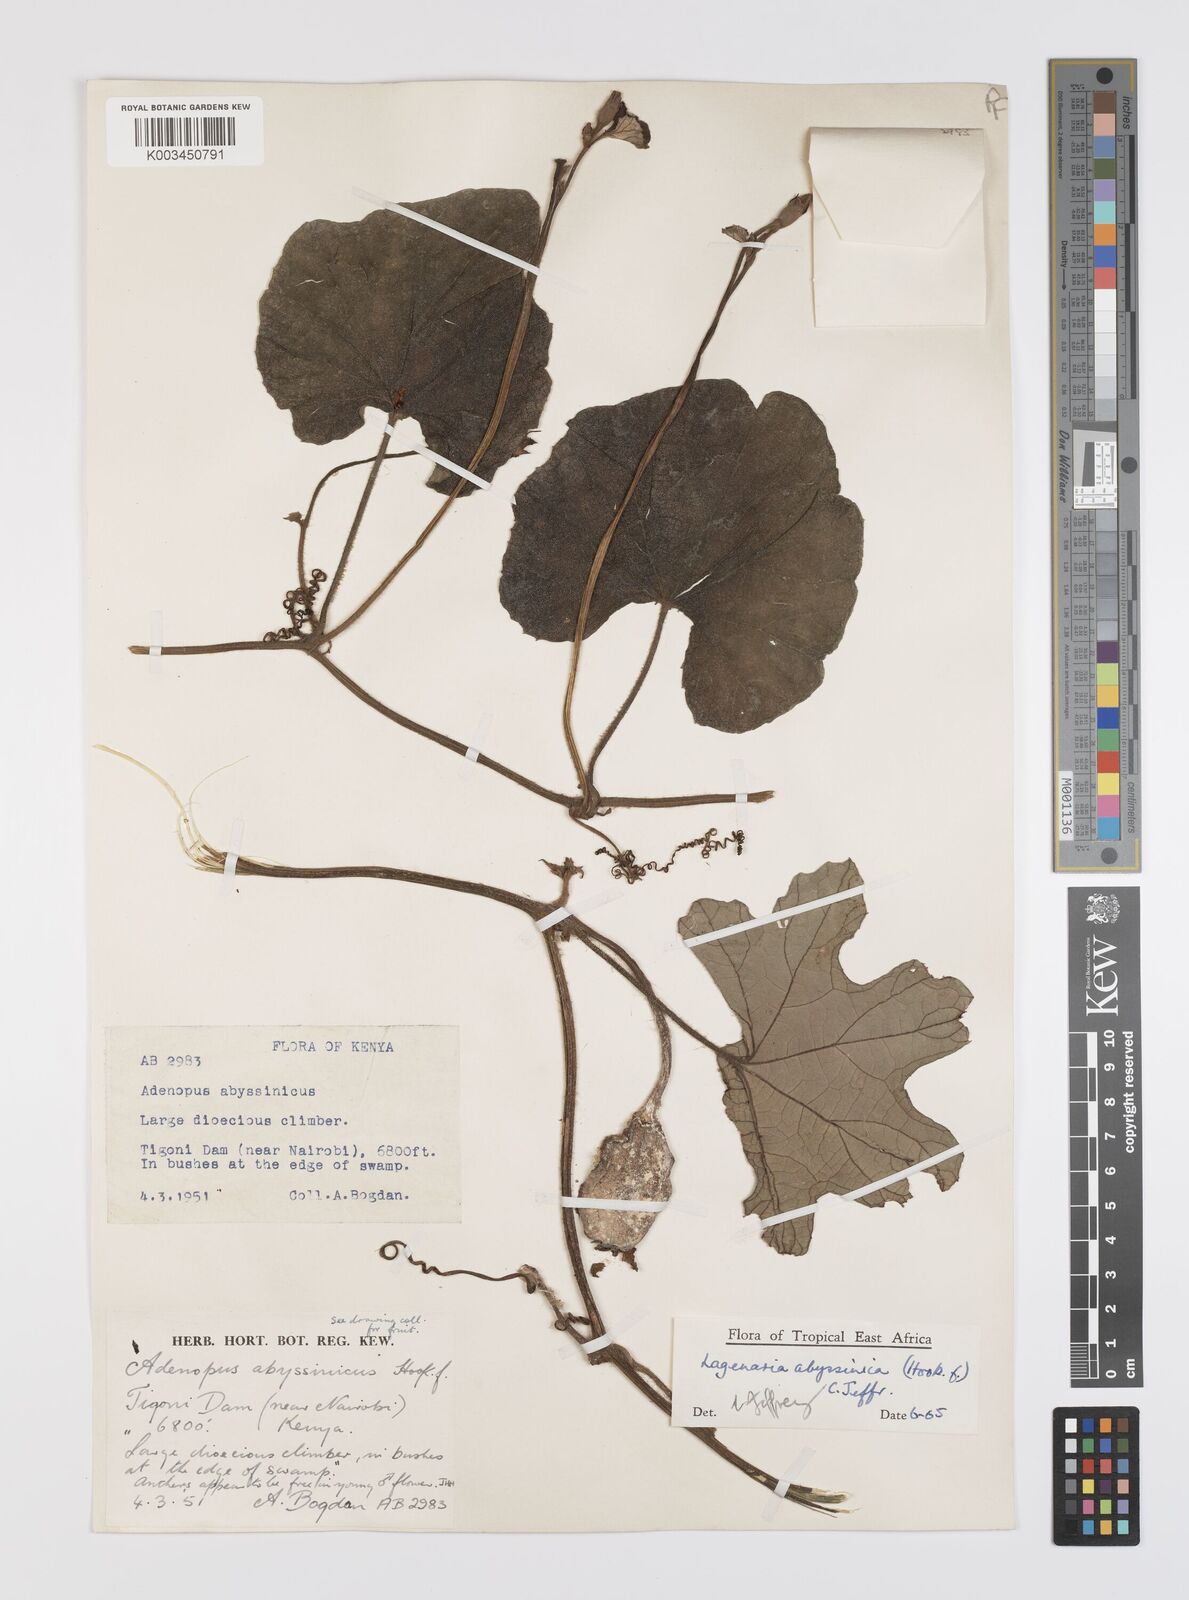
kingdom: Plantae
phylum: Tracheophyta
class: Magnoliopsida
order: Cucurbitales
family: Cucurbitaceae
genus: Lagenaria
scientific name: Lagenaria abyssinica
